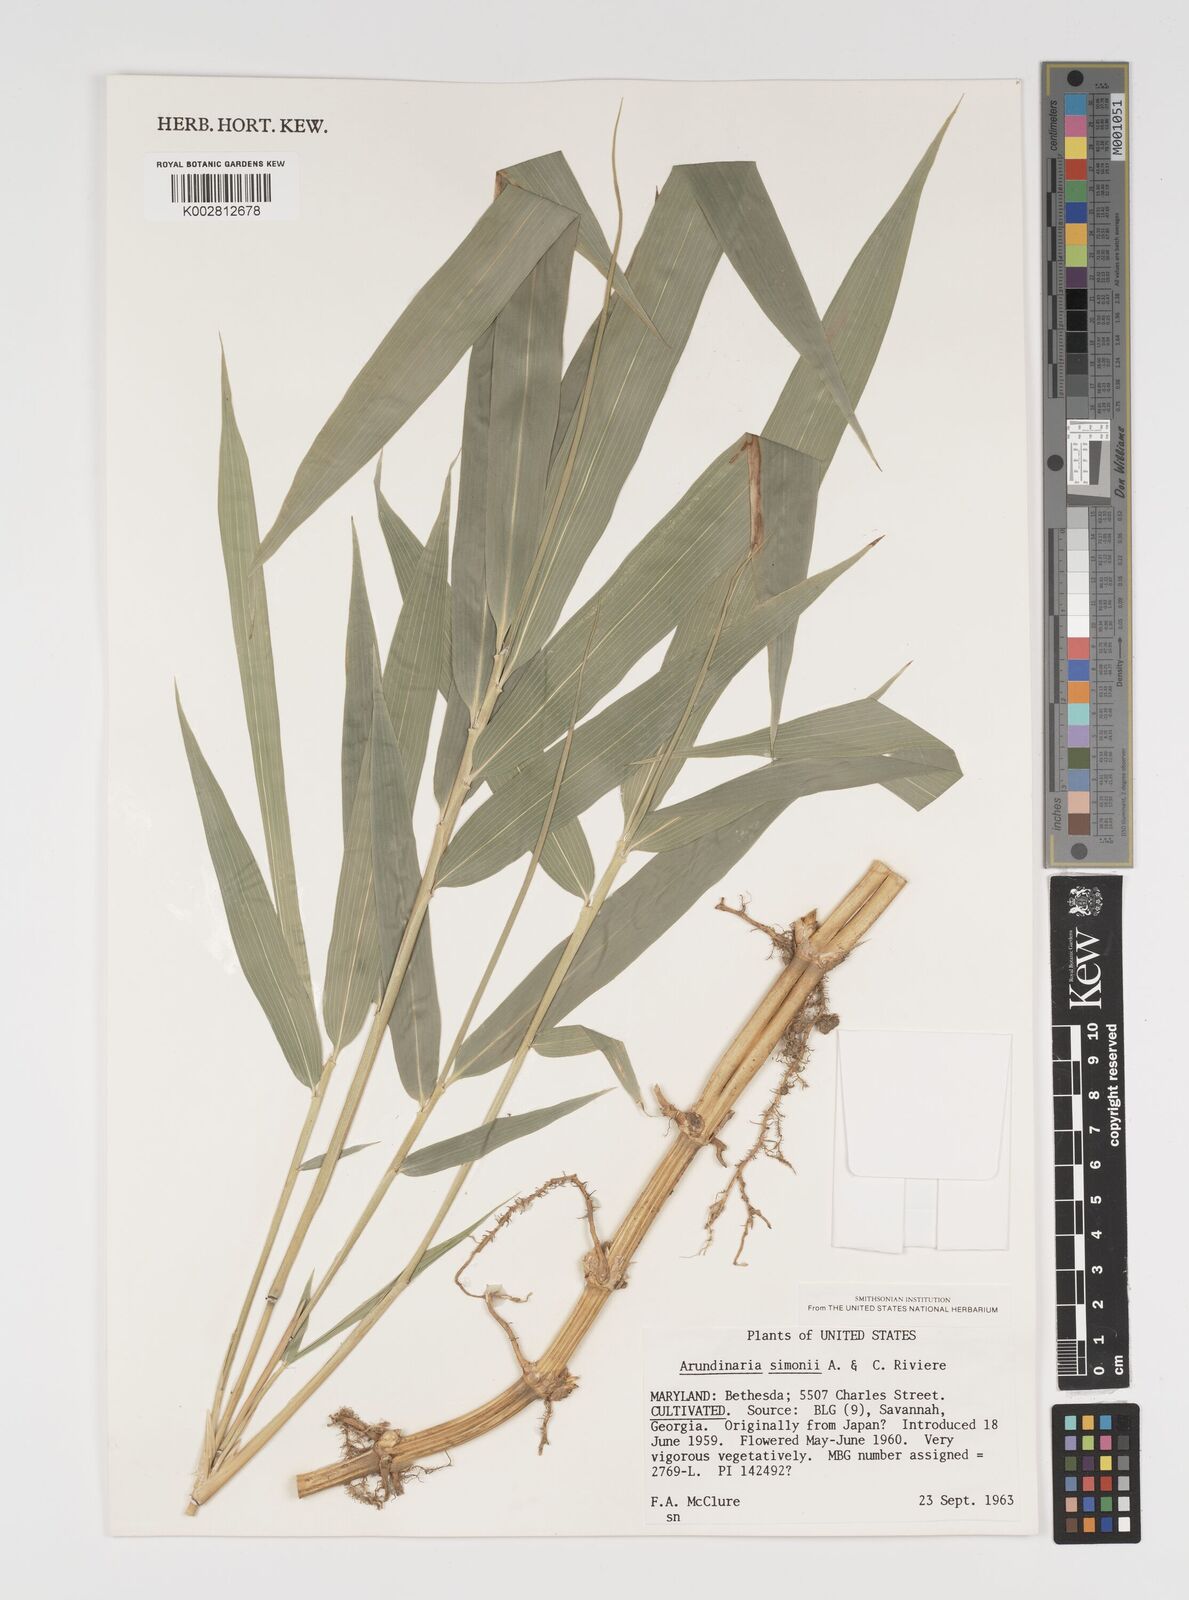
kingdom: Plantae
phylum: Tracheophyta
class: Liliopsida
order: Poales
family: Poaceae
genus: Pleioblastus
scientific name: Pleioblastus simonii
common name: Simon bamboo
